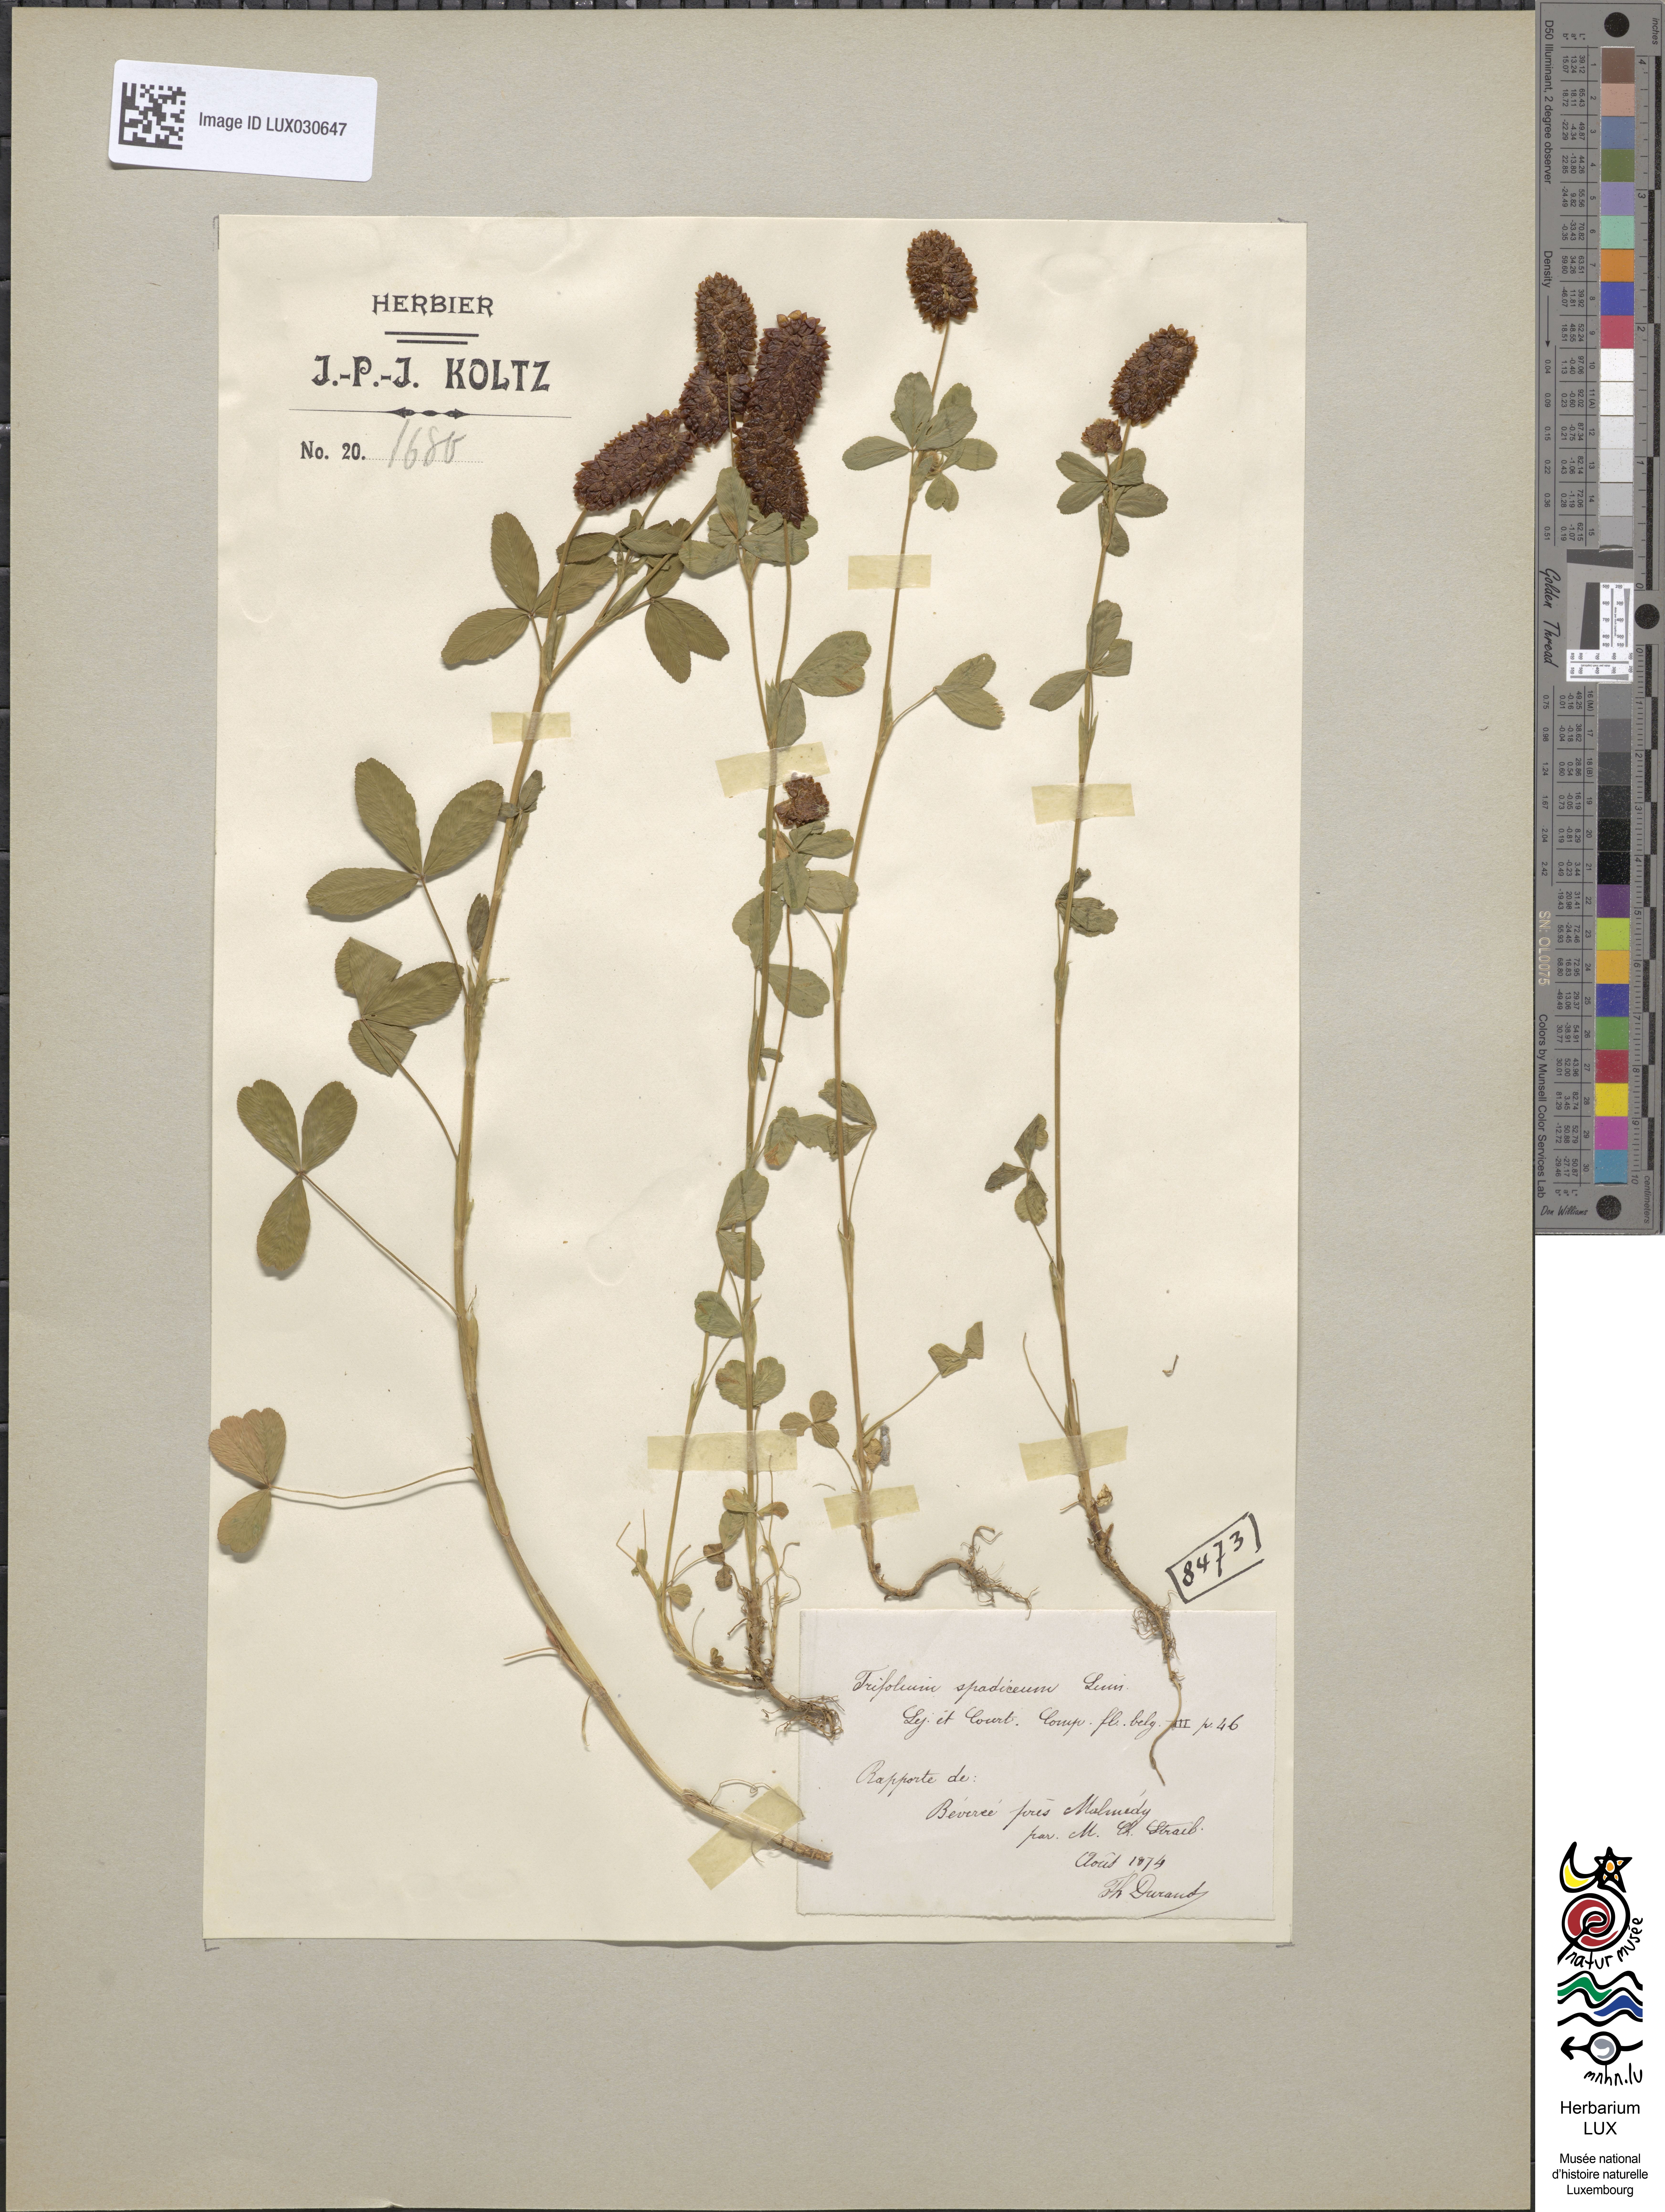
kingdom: Plantae
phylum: Tracheophyta
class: Magnoliopsida
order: Fabales
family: Fabaceae
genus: Trifolium
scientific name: Trifolium spadiceum
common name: Brown moor clover
